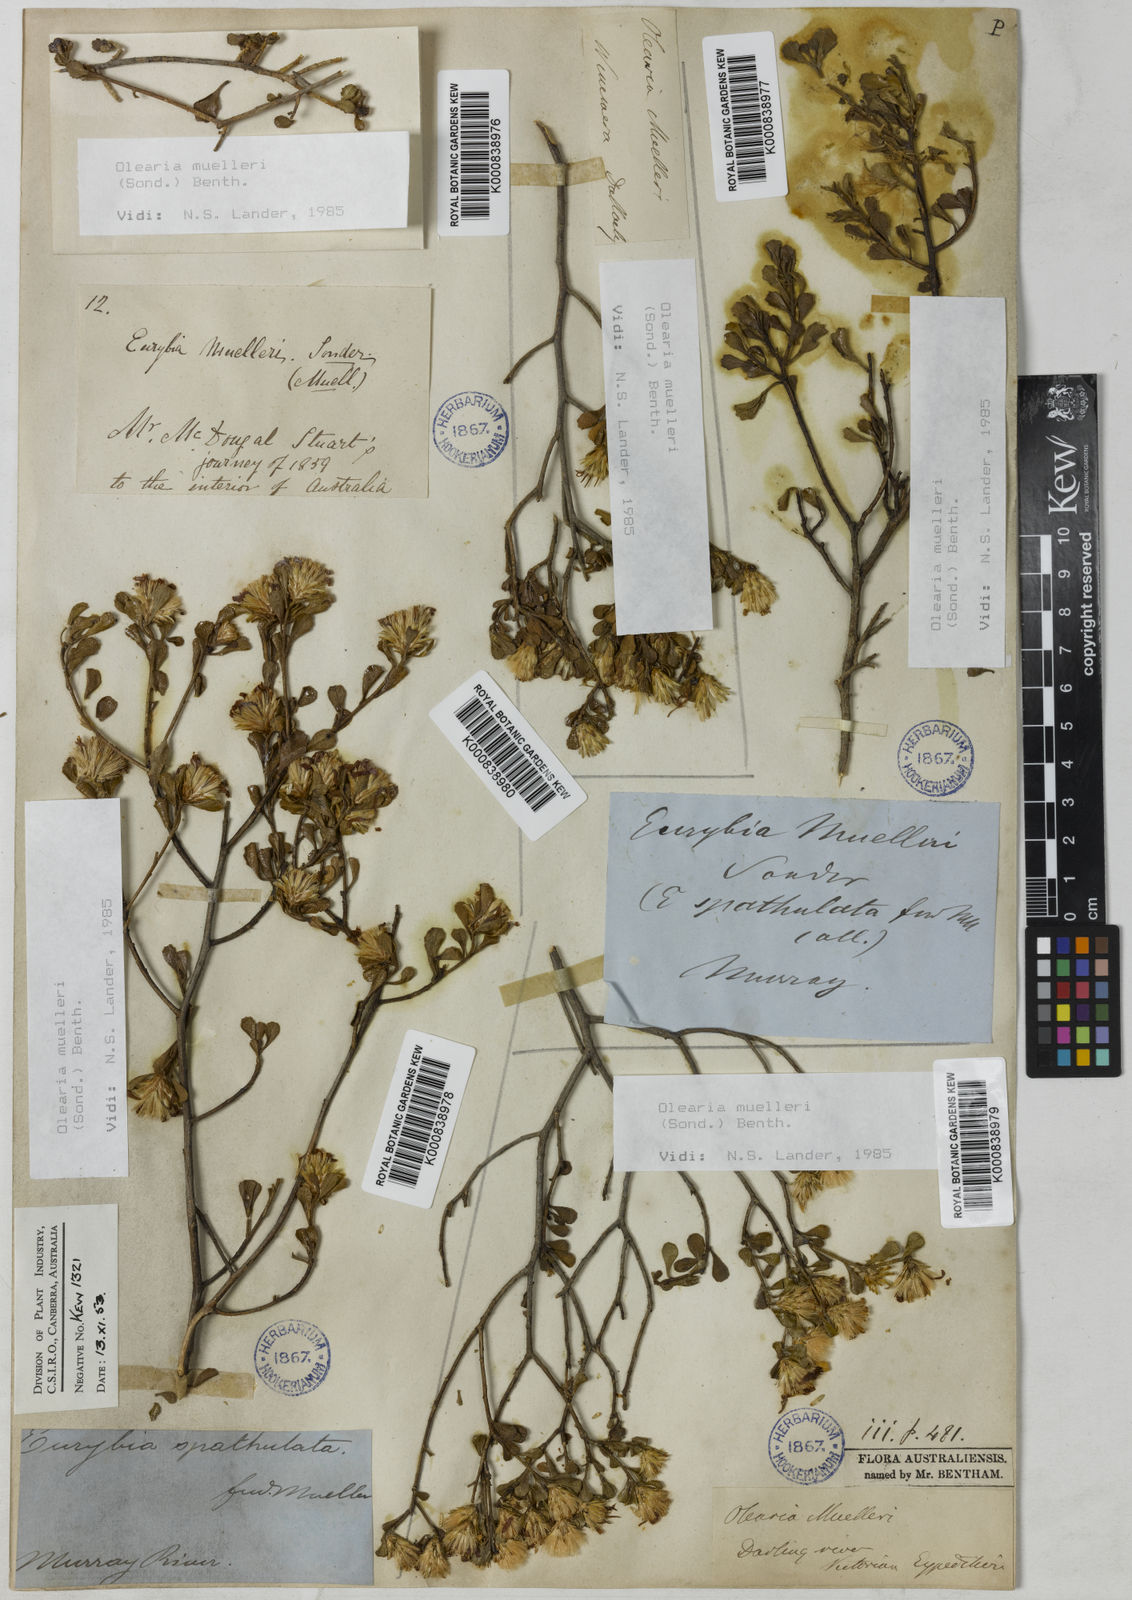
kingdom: Plantae
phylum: Tracheophyta
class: Magnoliopsida
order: Asterales
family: Asteraceae
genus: Walsholaria
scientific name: Walsholaria muelleri
